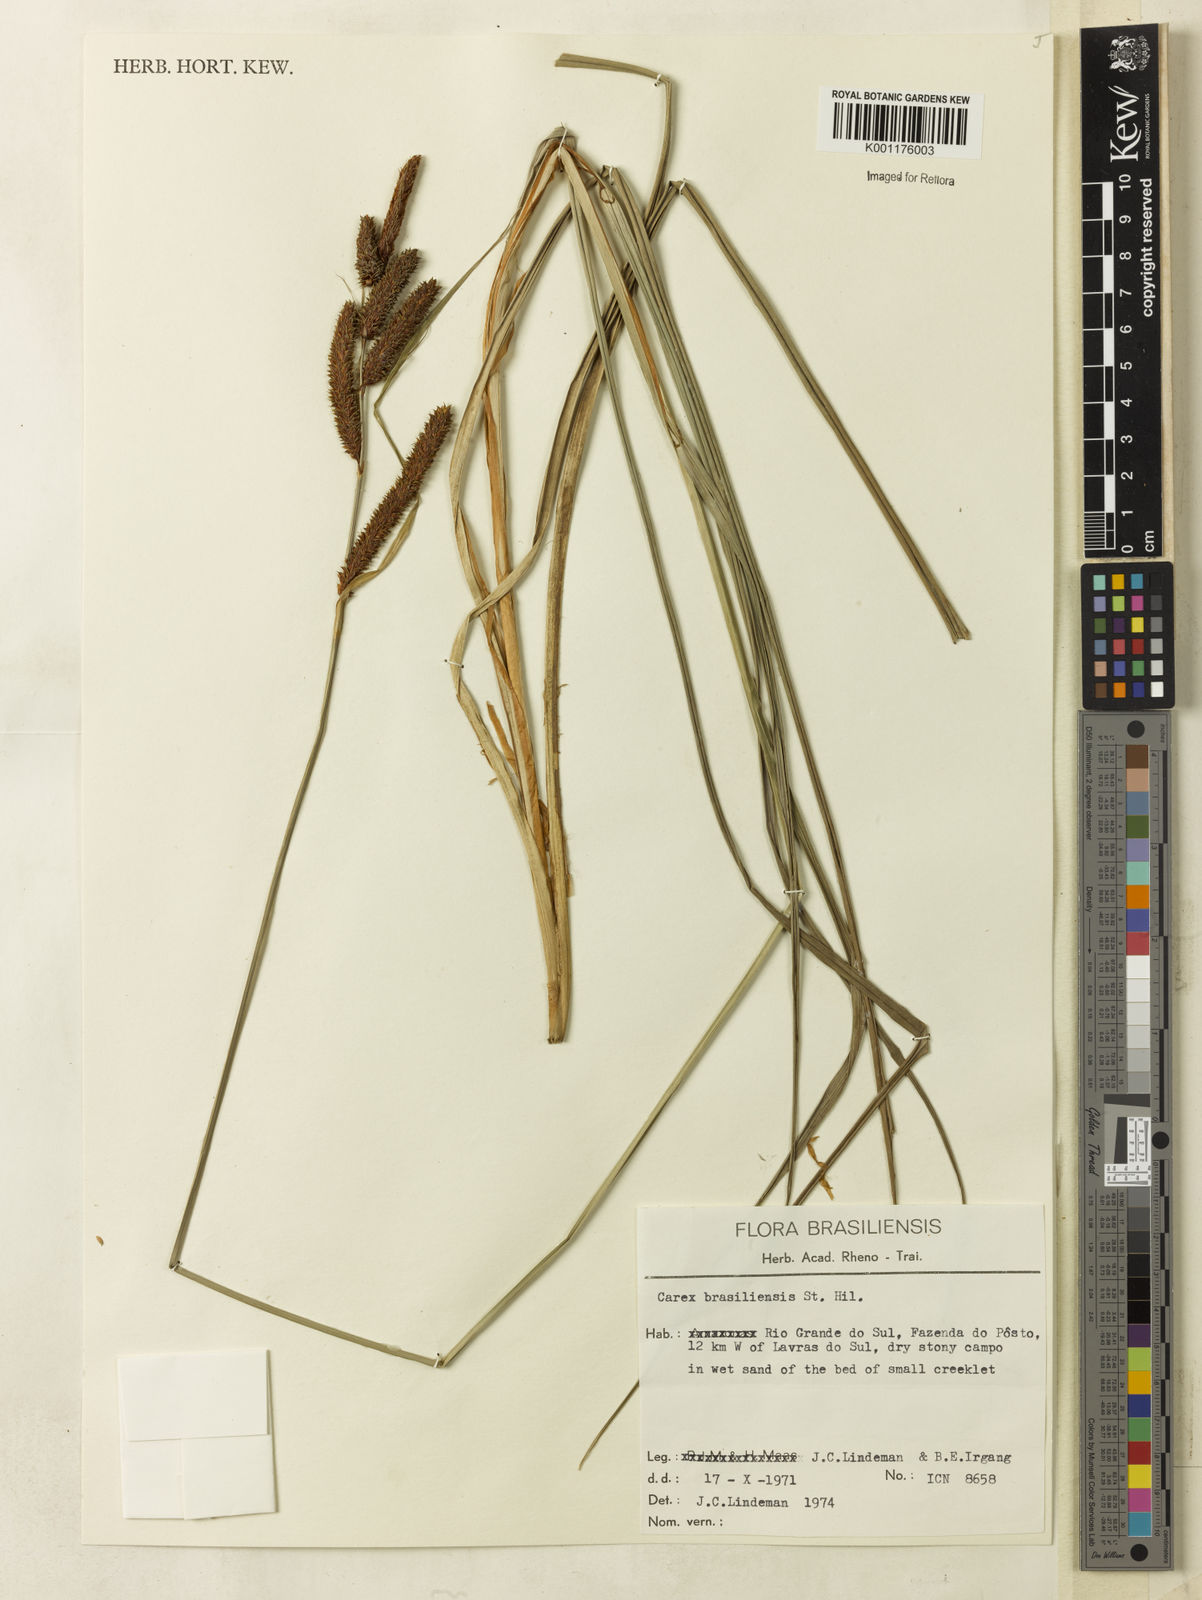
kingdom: Plantae
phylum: Tracheophyta
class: Liliopsida
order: Poales
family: Cyperaceae
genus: Carex
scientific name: Carex brasiliensis
